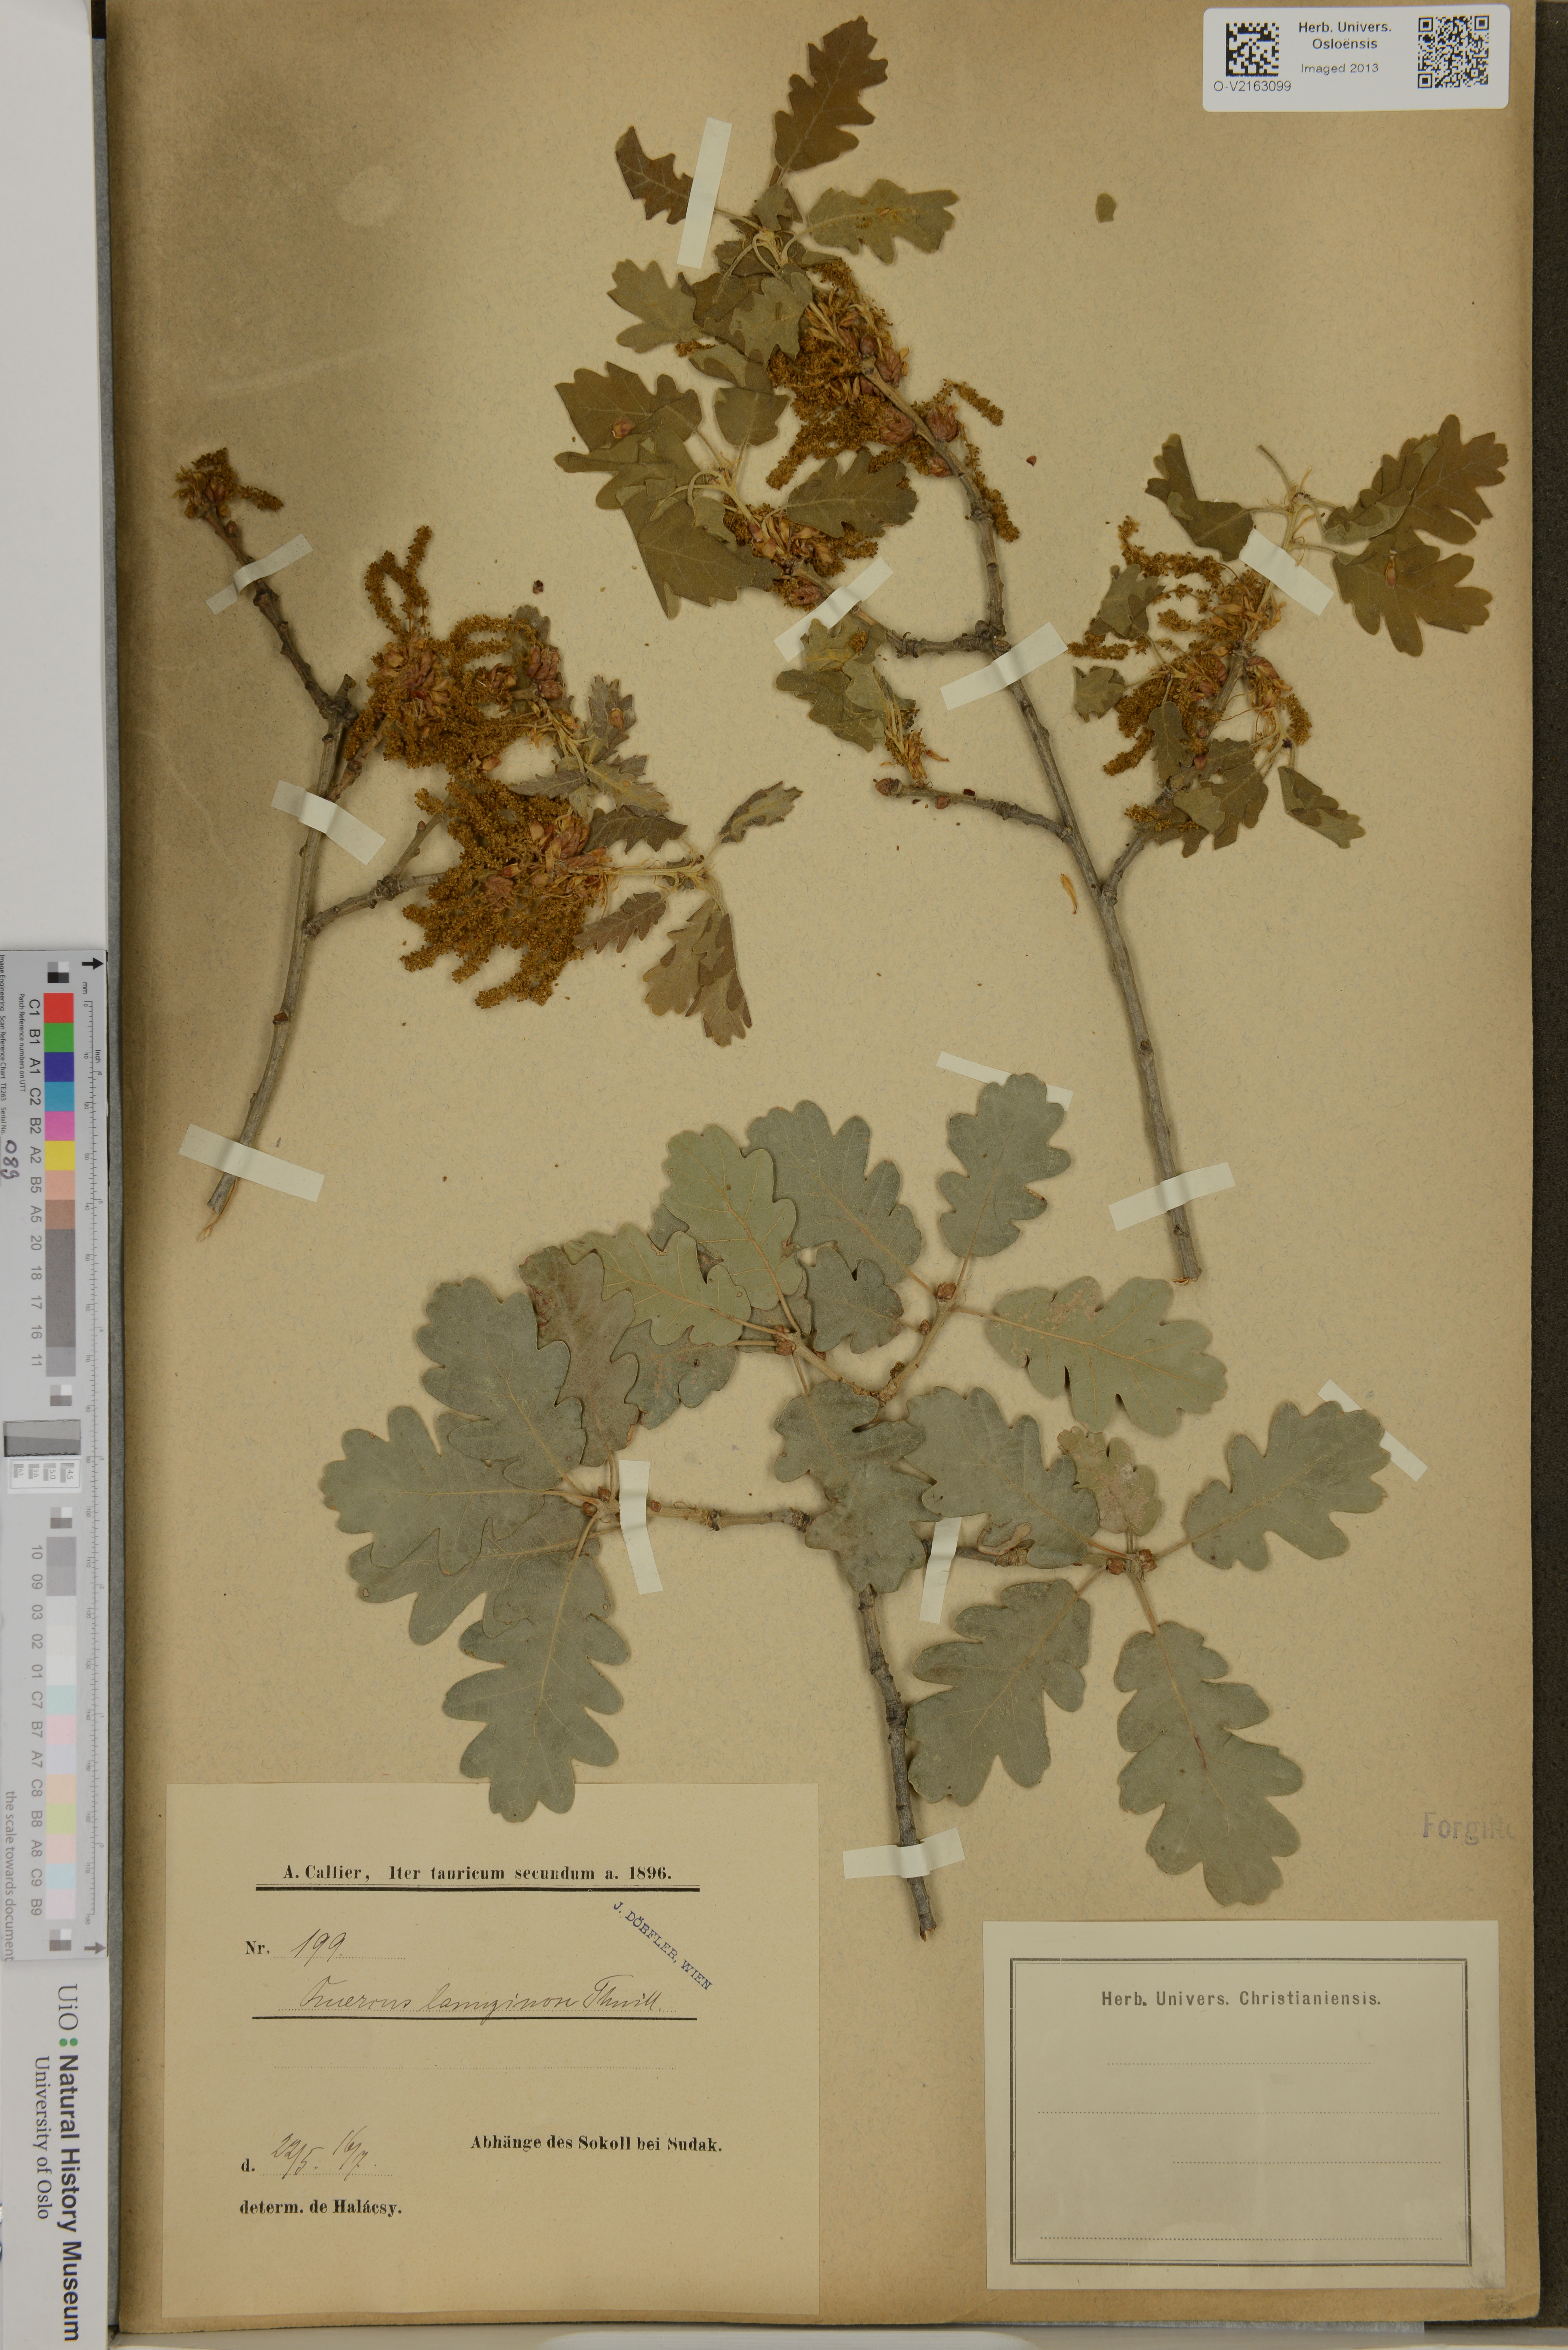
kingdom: Plantae
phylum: Tracheophyta
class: Magnoliopsida
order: Fagales
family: Fagaceae
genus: Quercus
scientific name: Quercus
